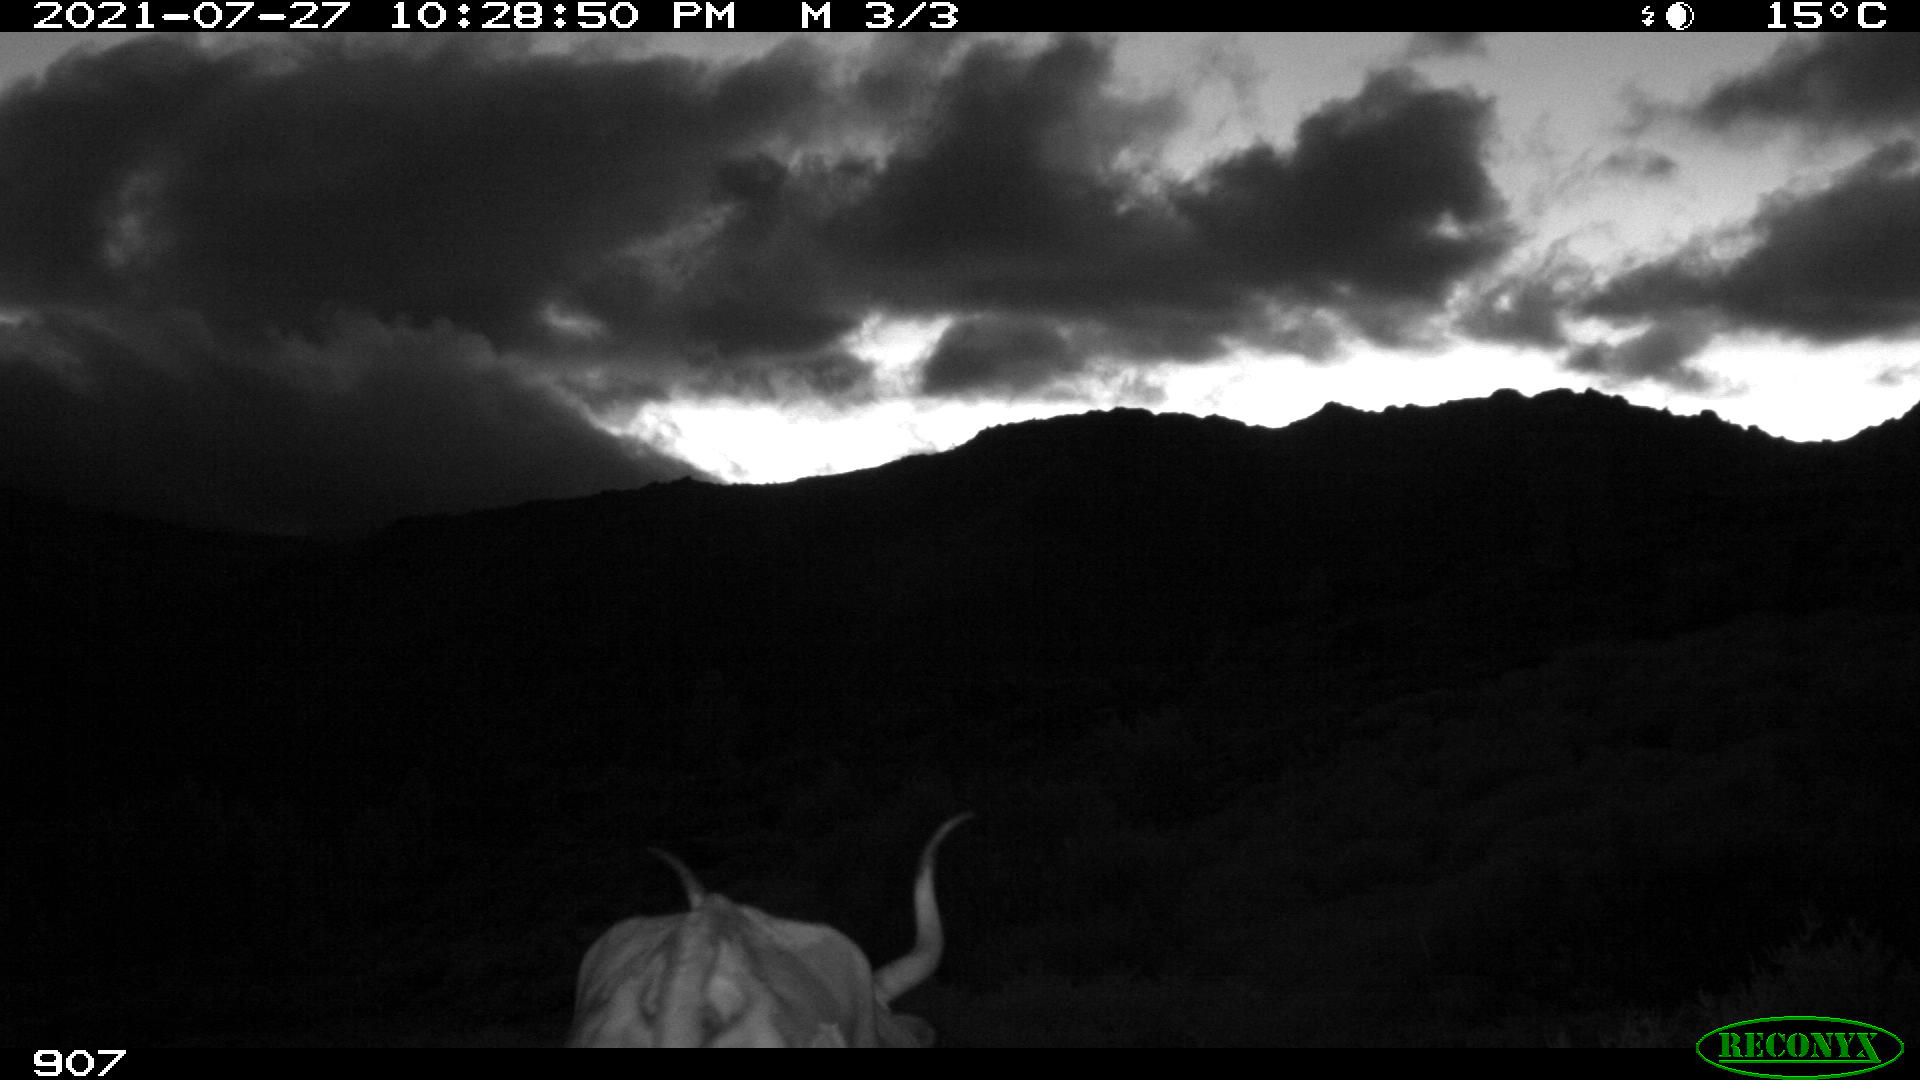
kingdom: Animalia
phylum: Chordata
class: Mammalia
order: Artiodactyla
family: Bovidae
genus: Bos
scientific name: Bos taurus
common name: Domesticated cattle
